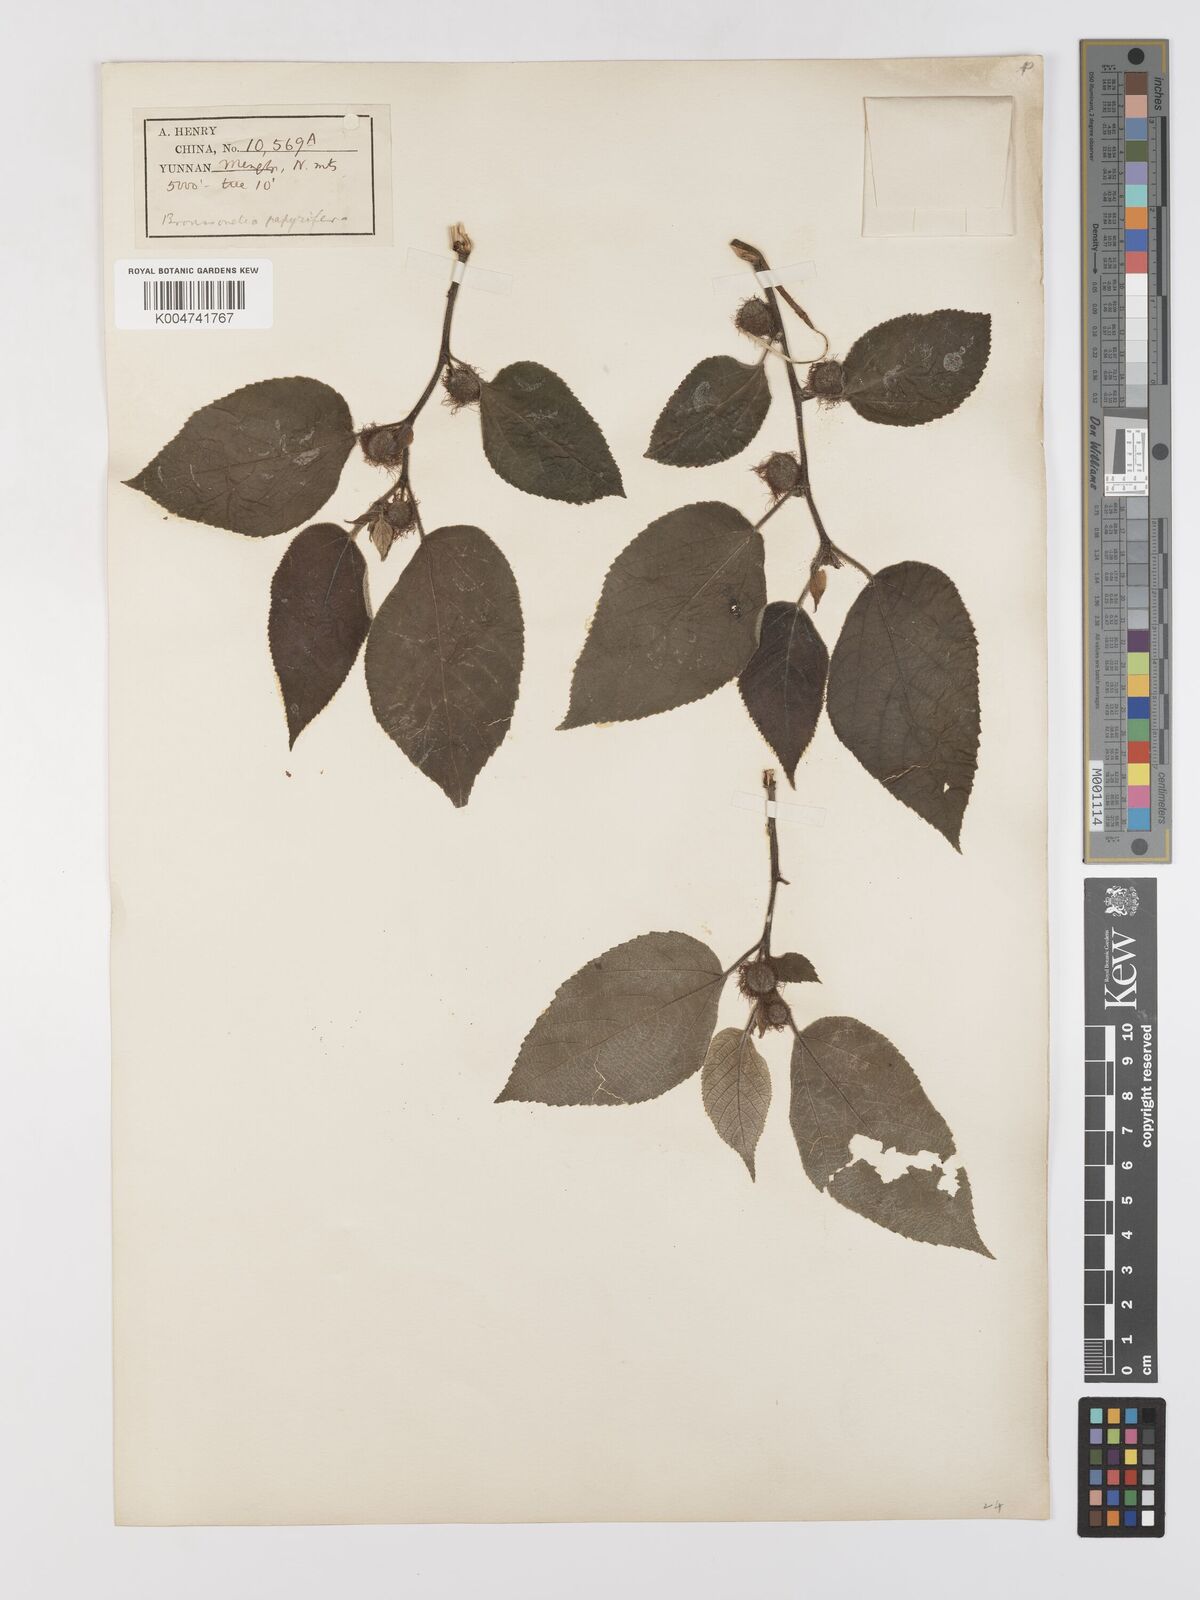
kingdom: Plantae
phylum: Tracheophyta
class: Magnoliopsida
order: Rosales
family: Moraceae
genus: Broussonetia
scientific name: Broussonetia
